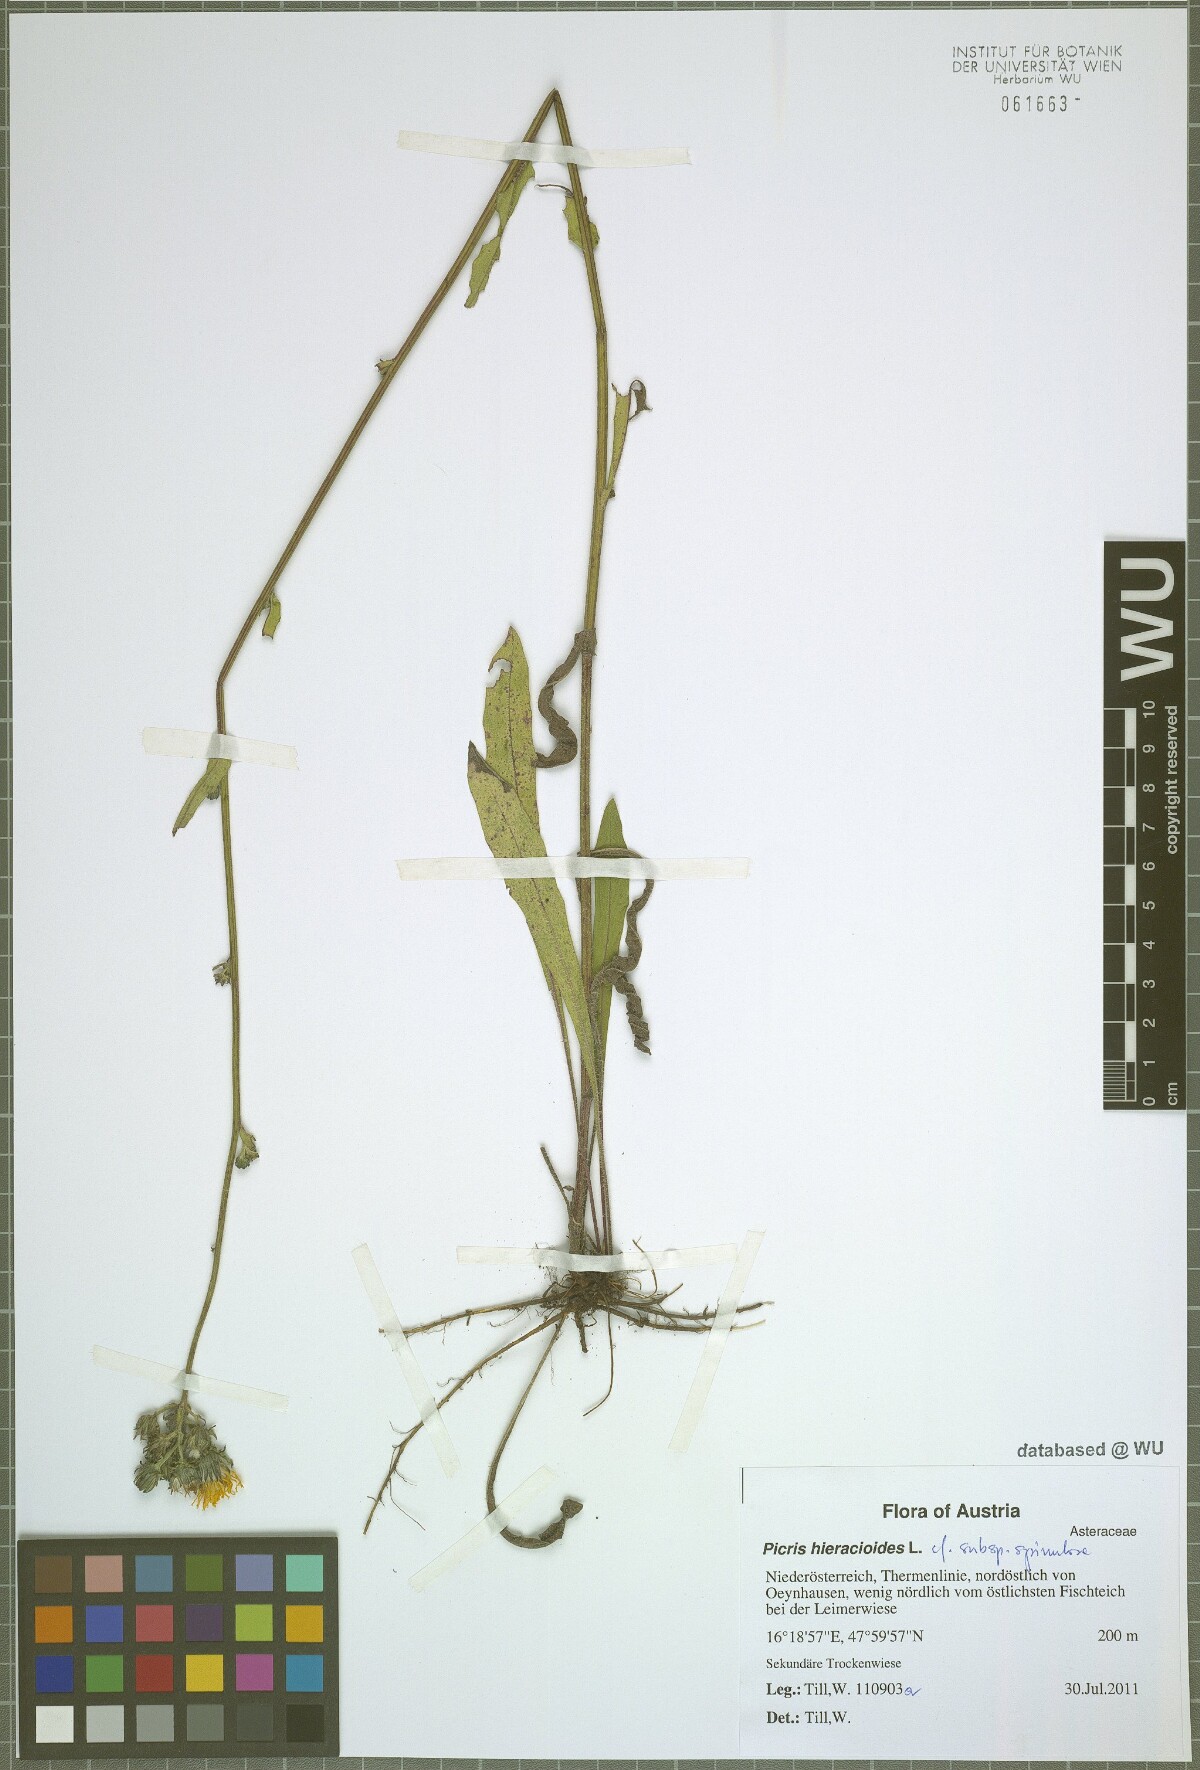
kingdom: Plantae
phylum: Tracheophyta
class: Magnoliopsida
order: Asterales
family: Asteraceae
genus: Picris
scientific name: Picris hieracioides
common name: Hawkweed oxtongue
